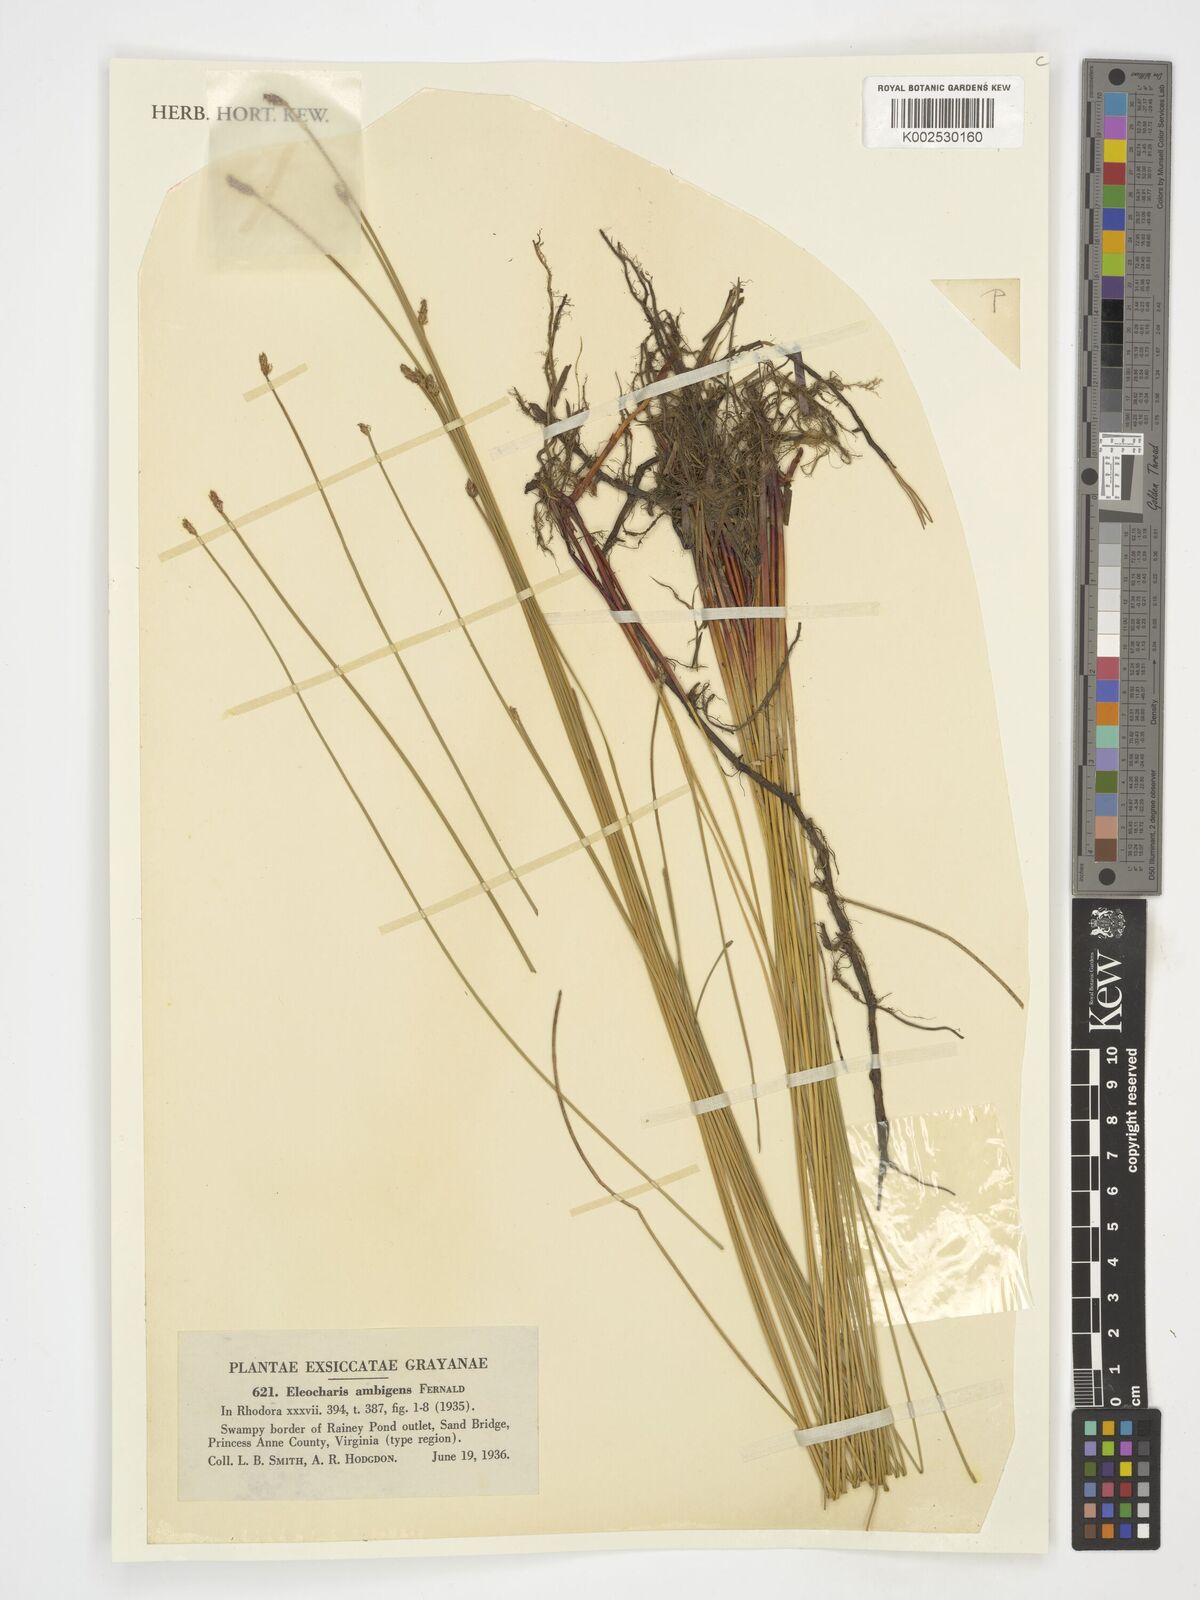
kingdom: Plantae
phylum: Tracheophyta
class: Liliopsida
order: Poales
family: Cyperaceae
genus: Eleocharis
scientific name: Eleocharis fallax
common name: Creeping spikerush
